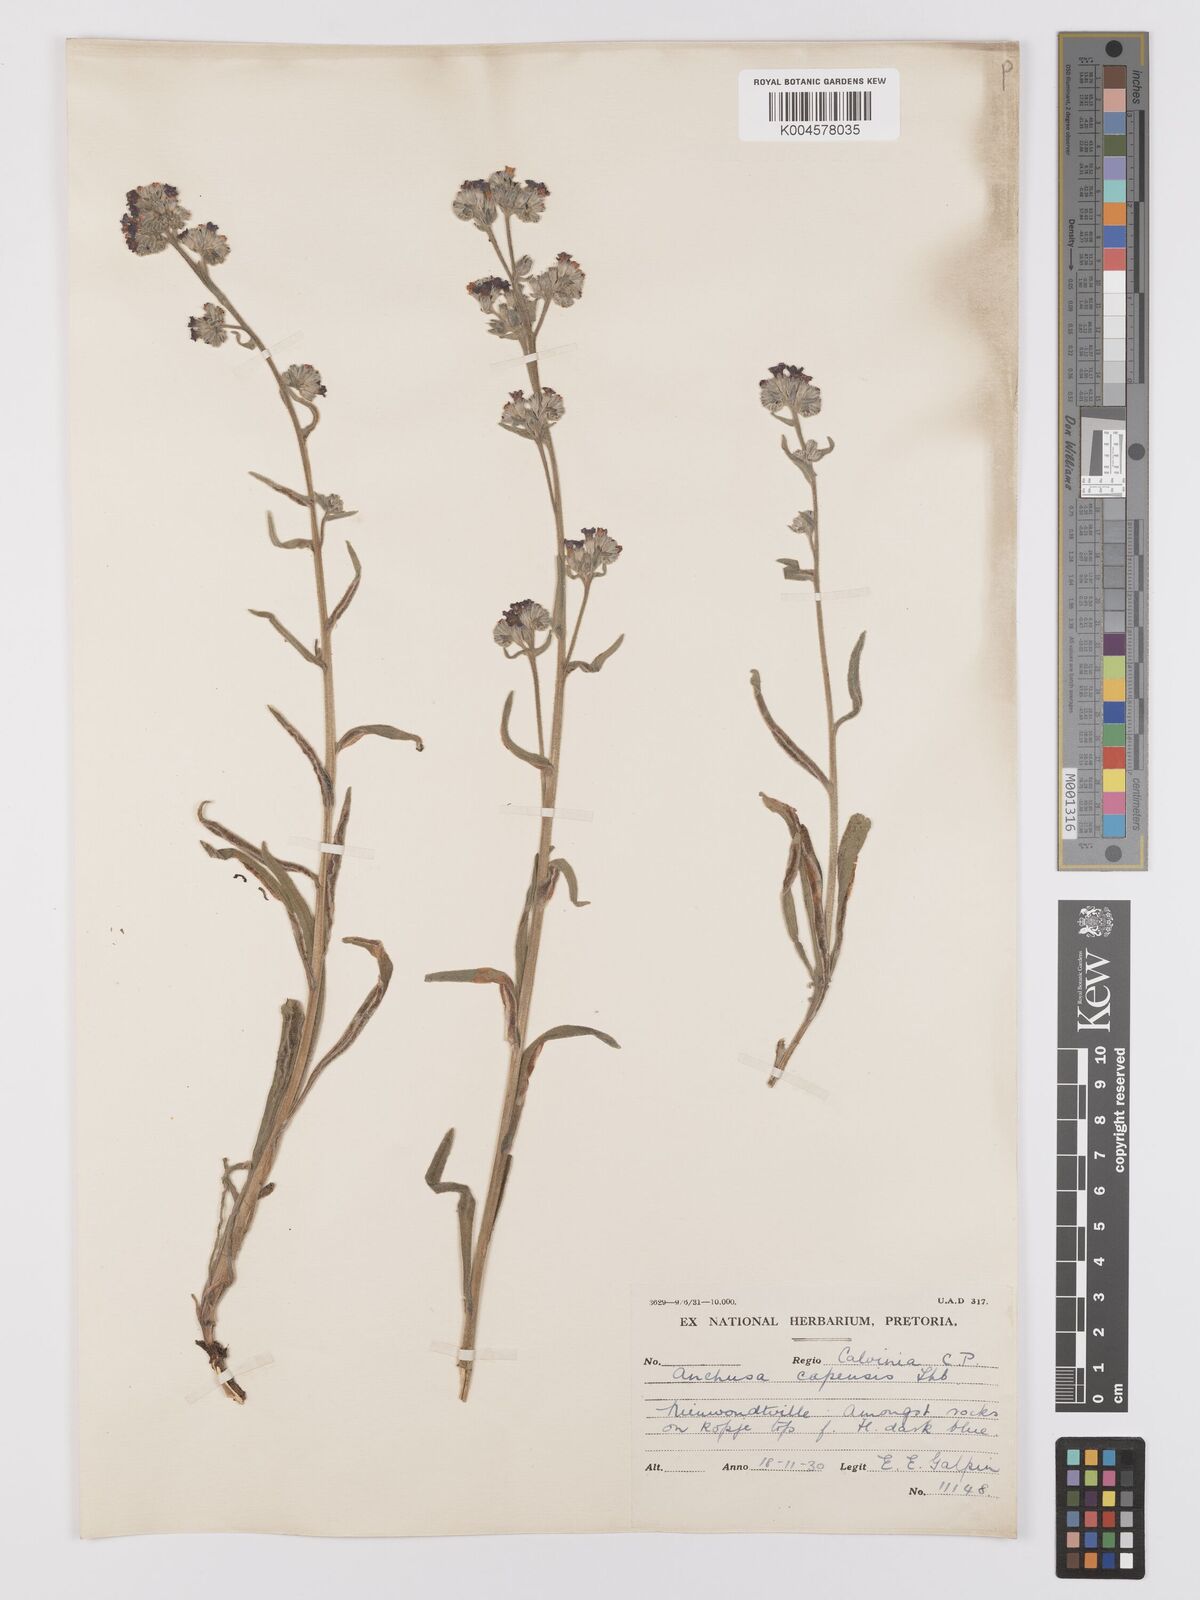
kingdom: Plantae
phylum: Tracheophyta
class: Magnoliopsida
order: Boraginales
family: Boraginaceae
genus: Anchusa
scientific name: Anchusa capensis
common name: Cape bugloss
